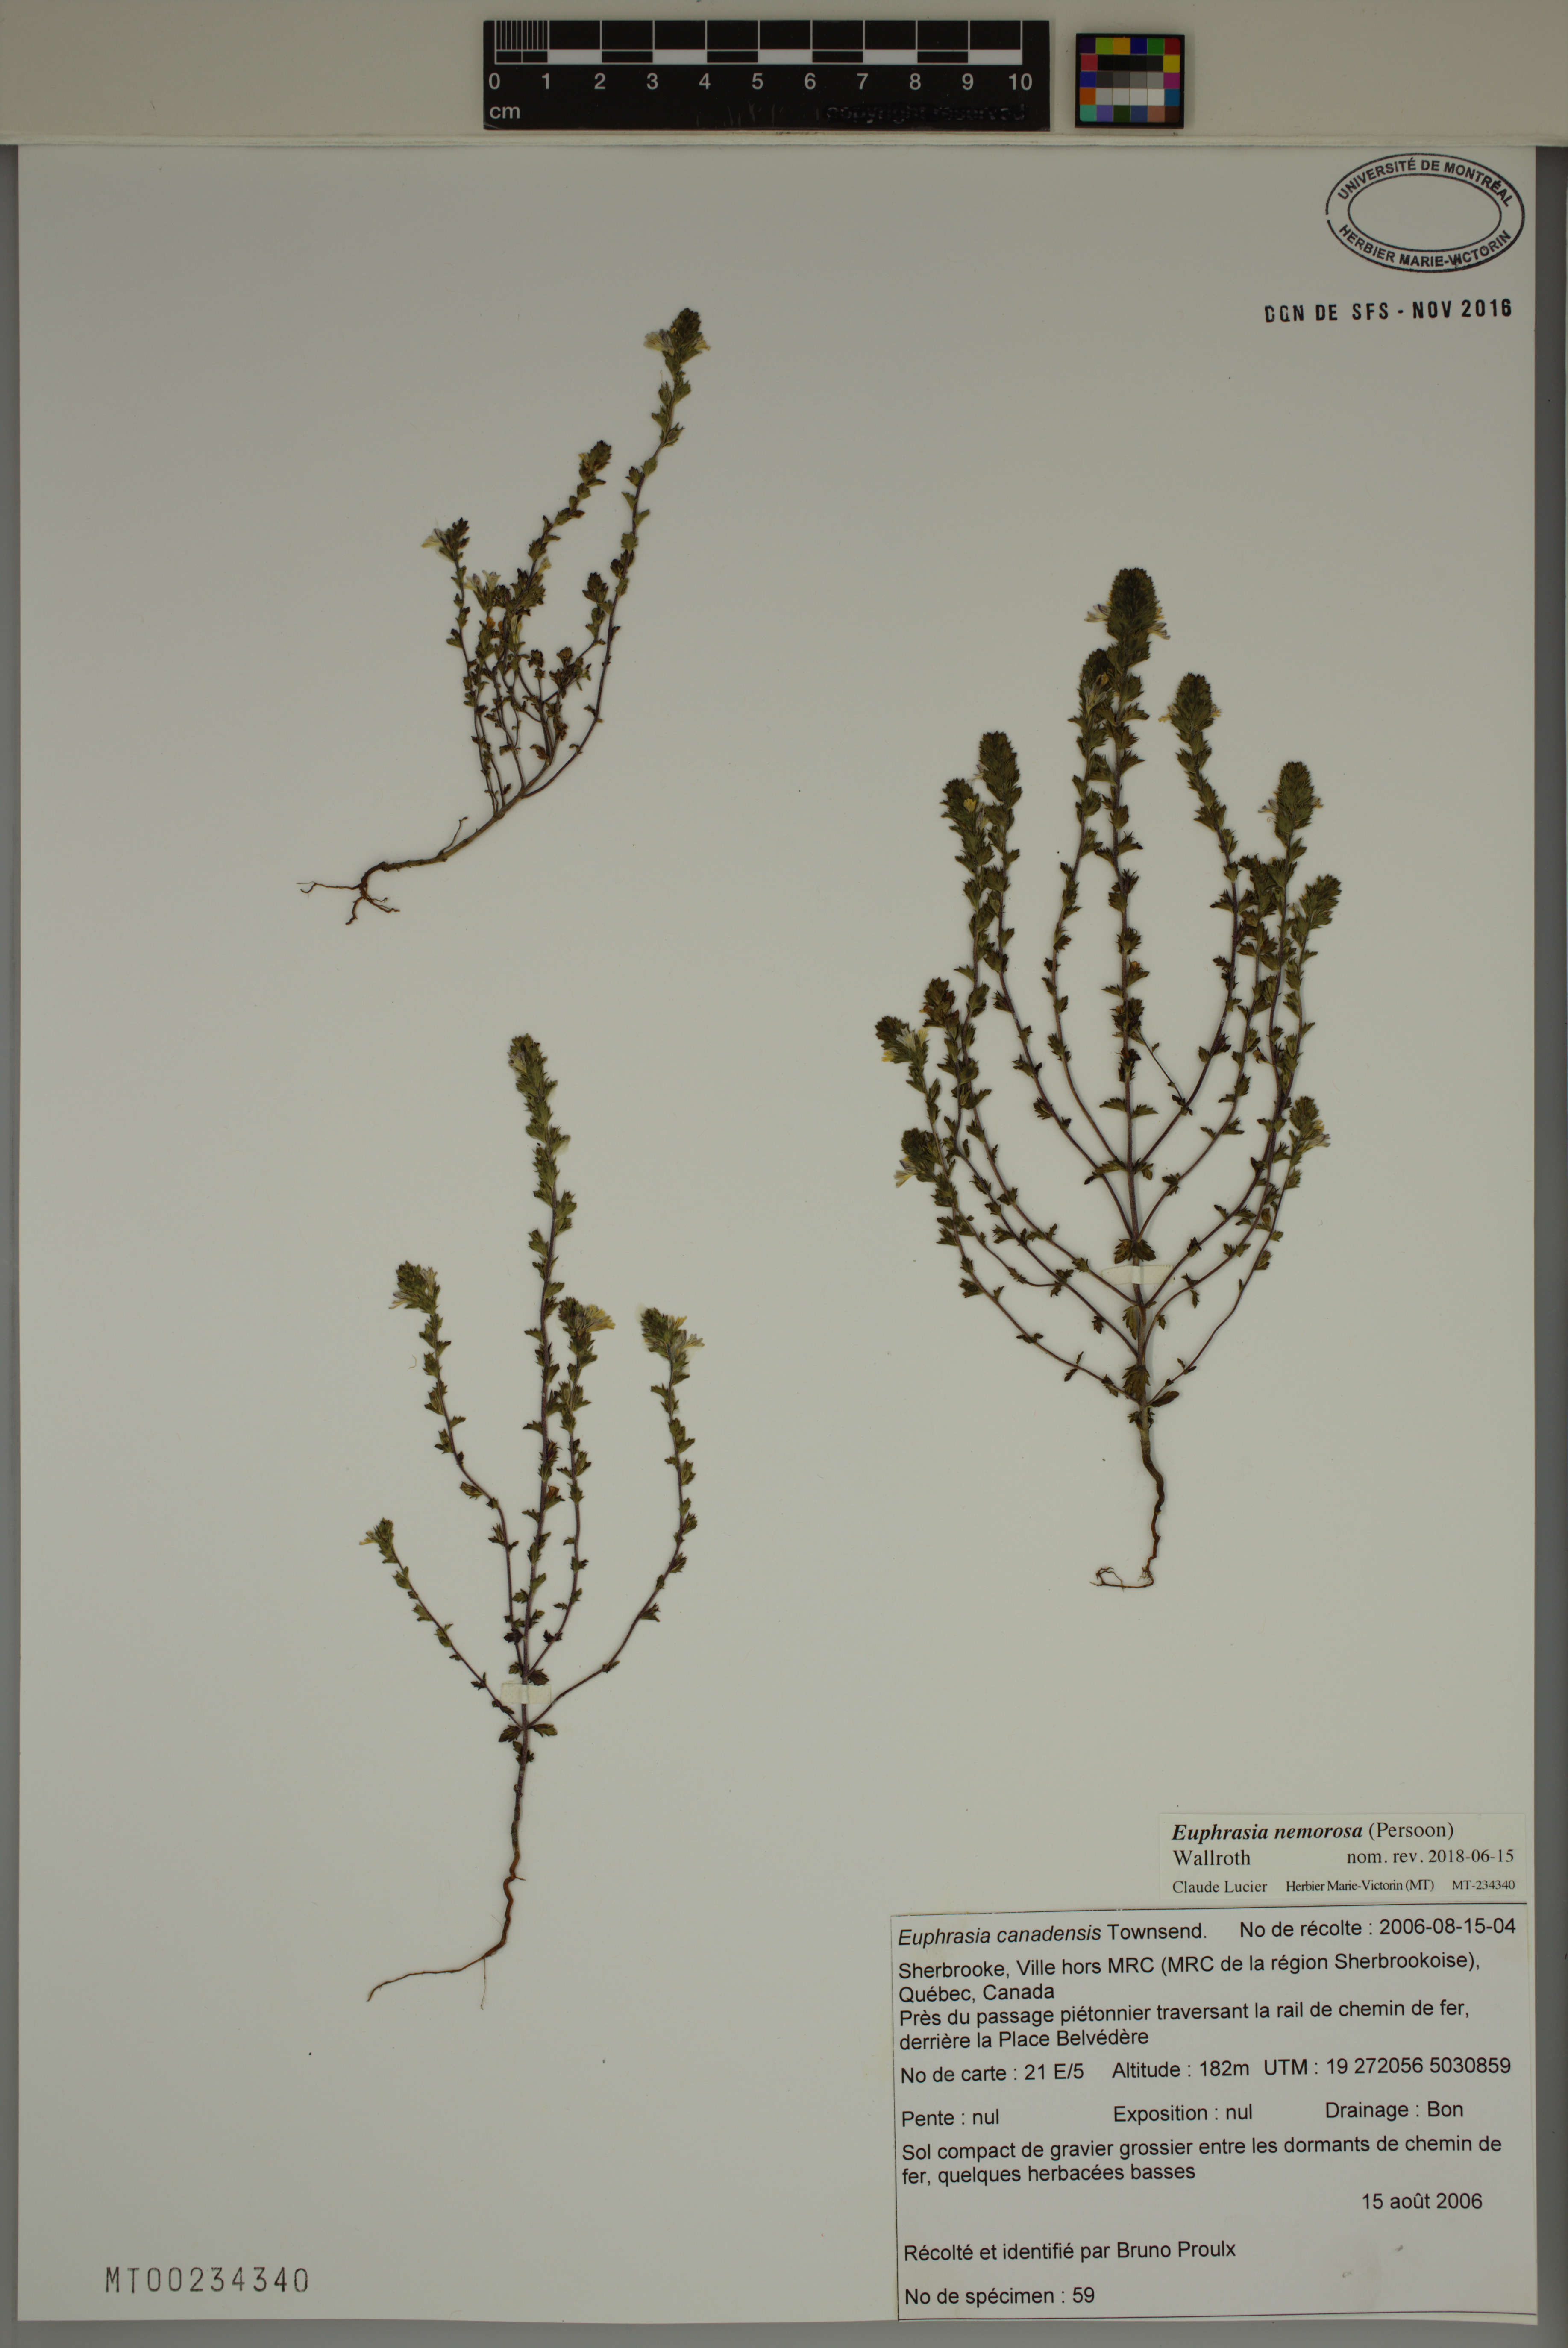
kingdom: Plantae
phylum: Tracheophyta
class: Magnoliopsida
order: Lamiales
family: Orobanchaceae
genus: Euphrasia
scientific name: Euphrasia nemorosa
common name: Common eyebright
